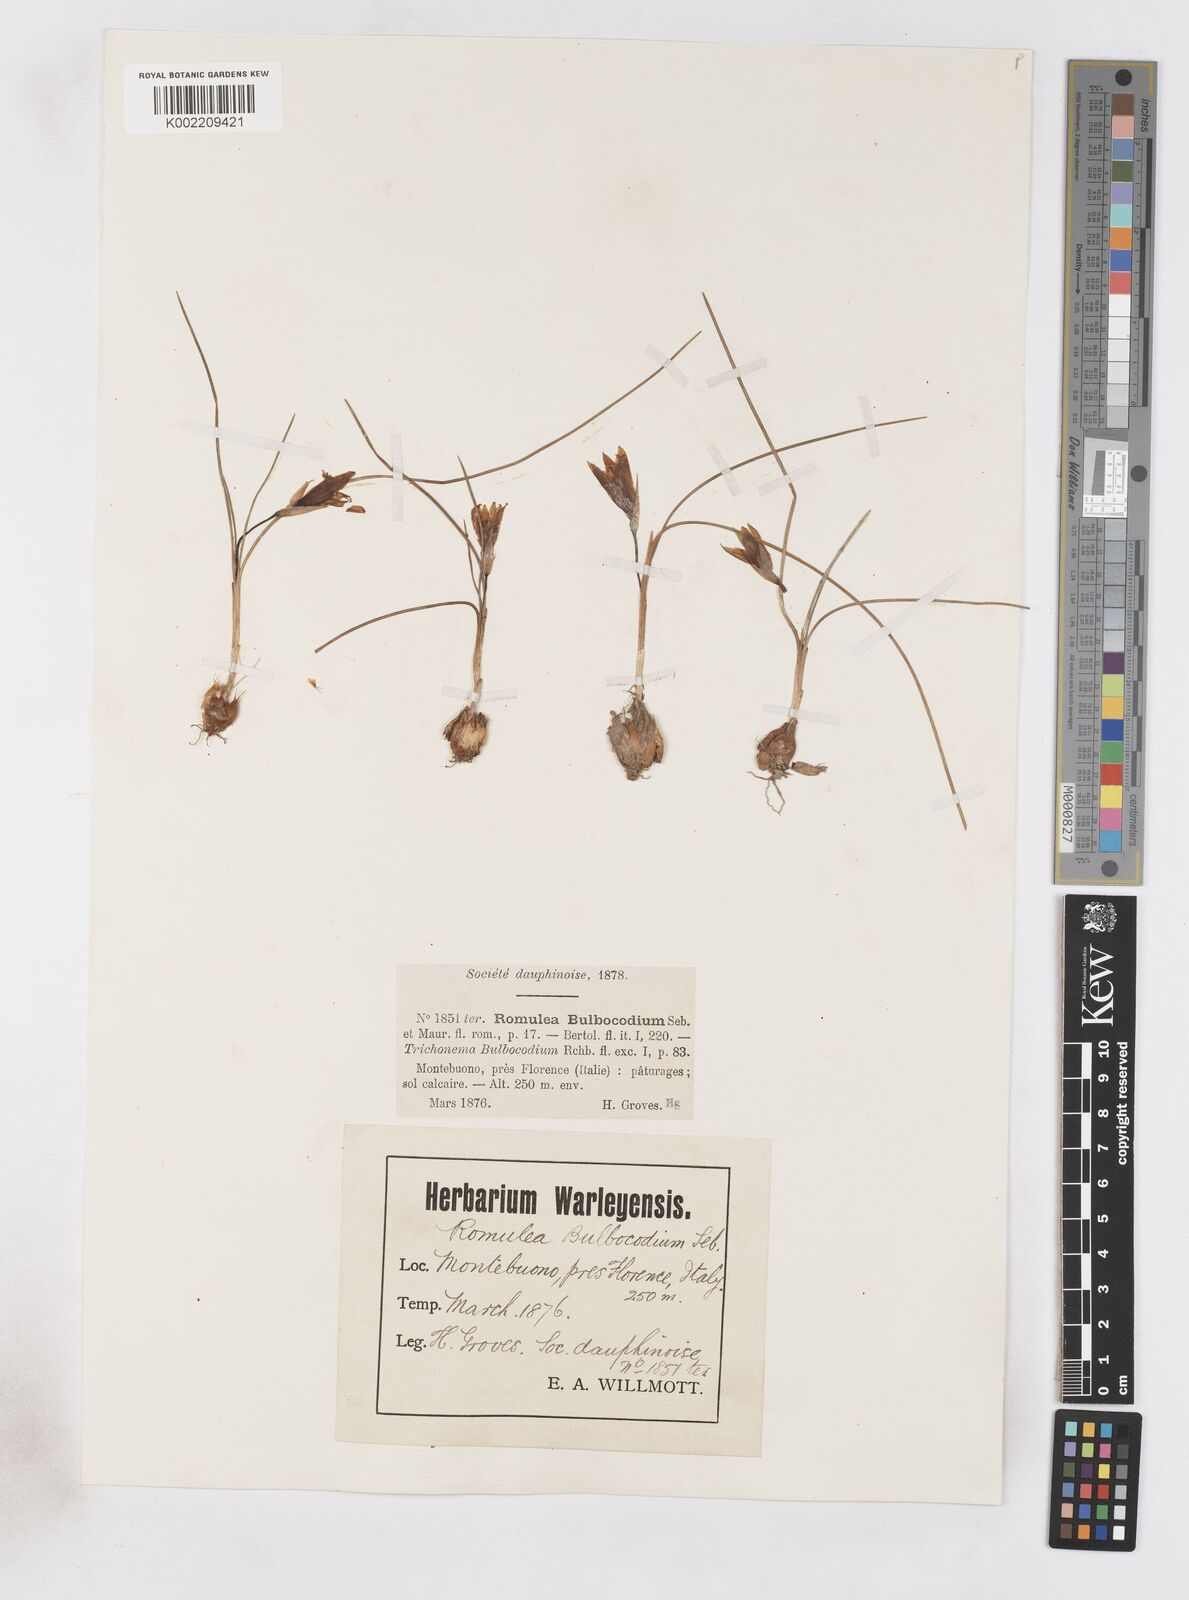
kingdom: Plantae
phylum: Tracheophyta
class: Liliopsida
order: Asparagales
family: Iridaceae
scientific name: Iridaceae
